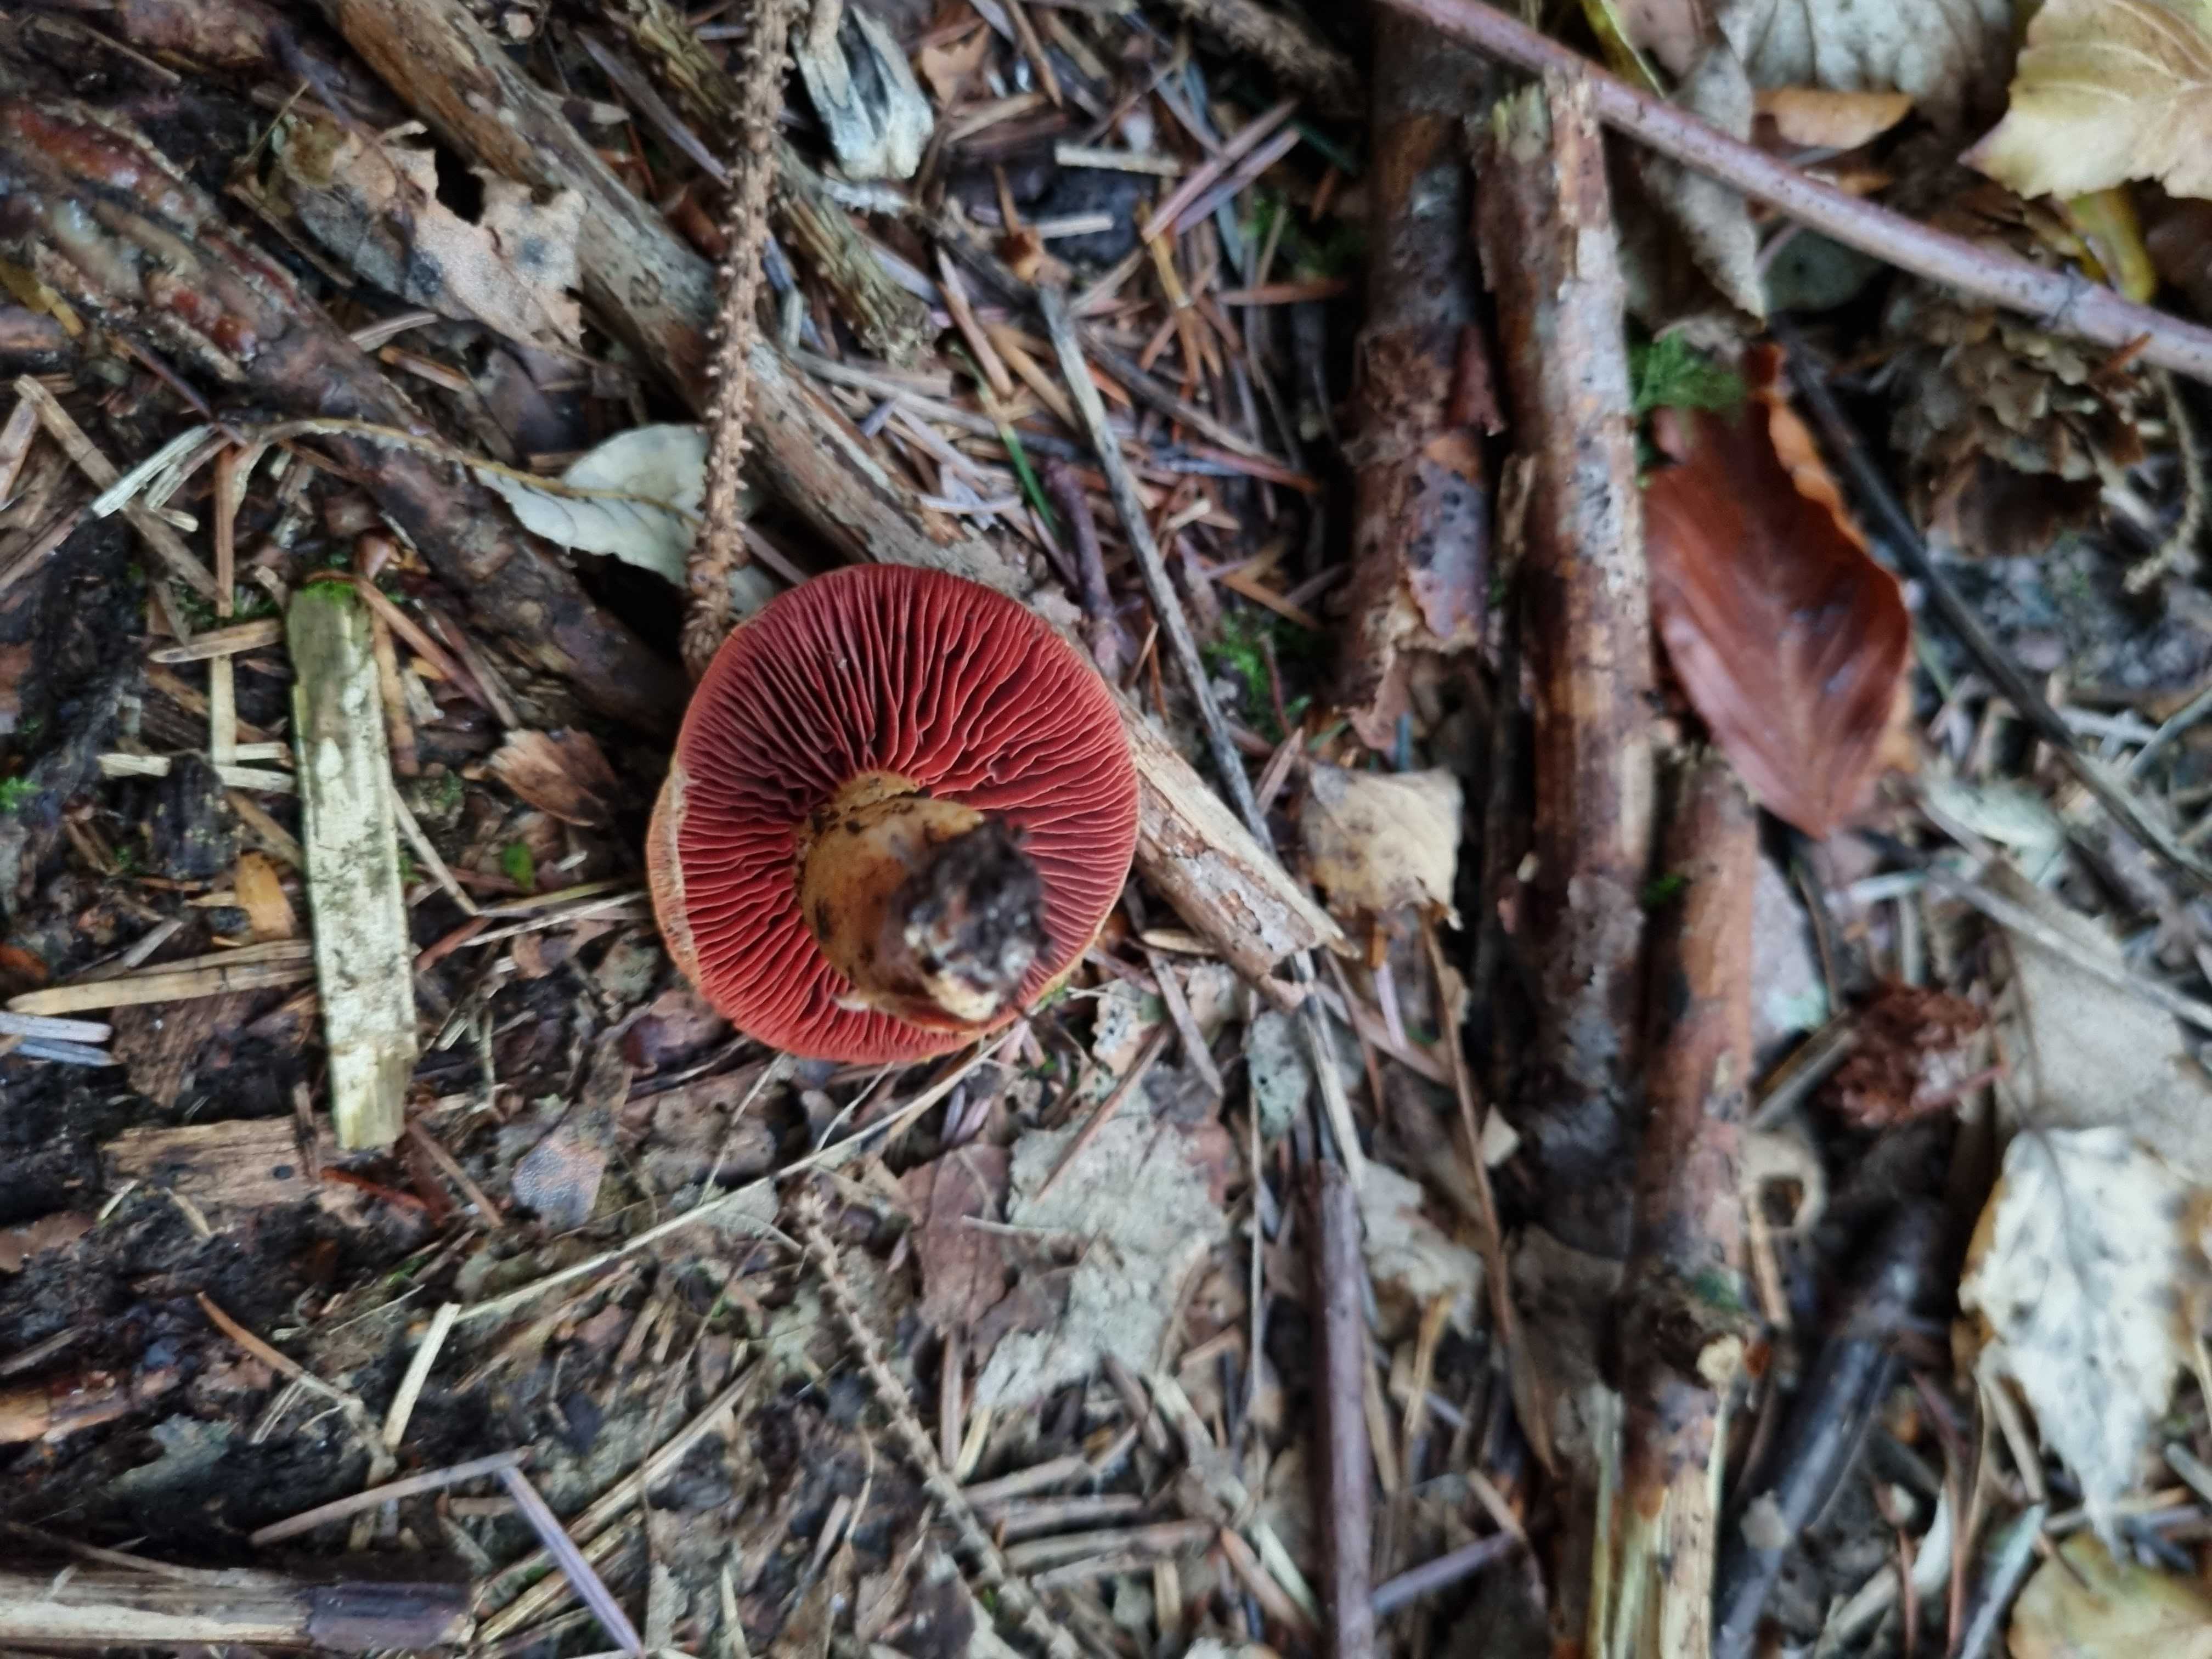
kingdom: Fungi
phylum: Basidiomycota
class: Agaricomycetes
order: Agaricales
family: Cortinariaceae
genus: Cortinarius
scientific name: Cortinarius
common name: cinnoberbladet slørhat
